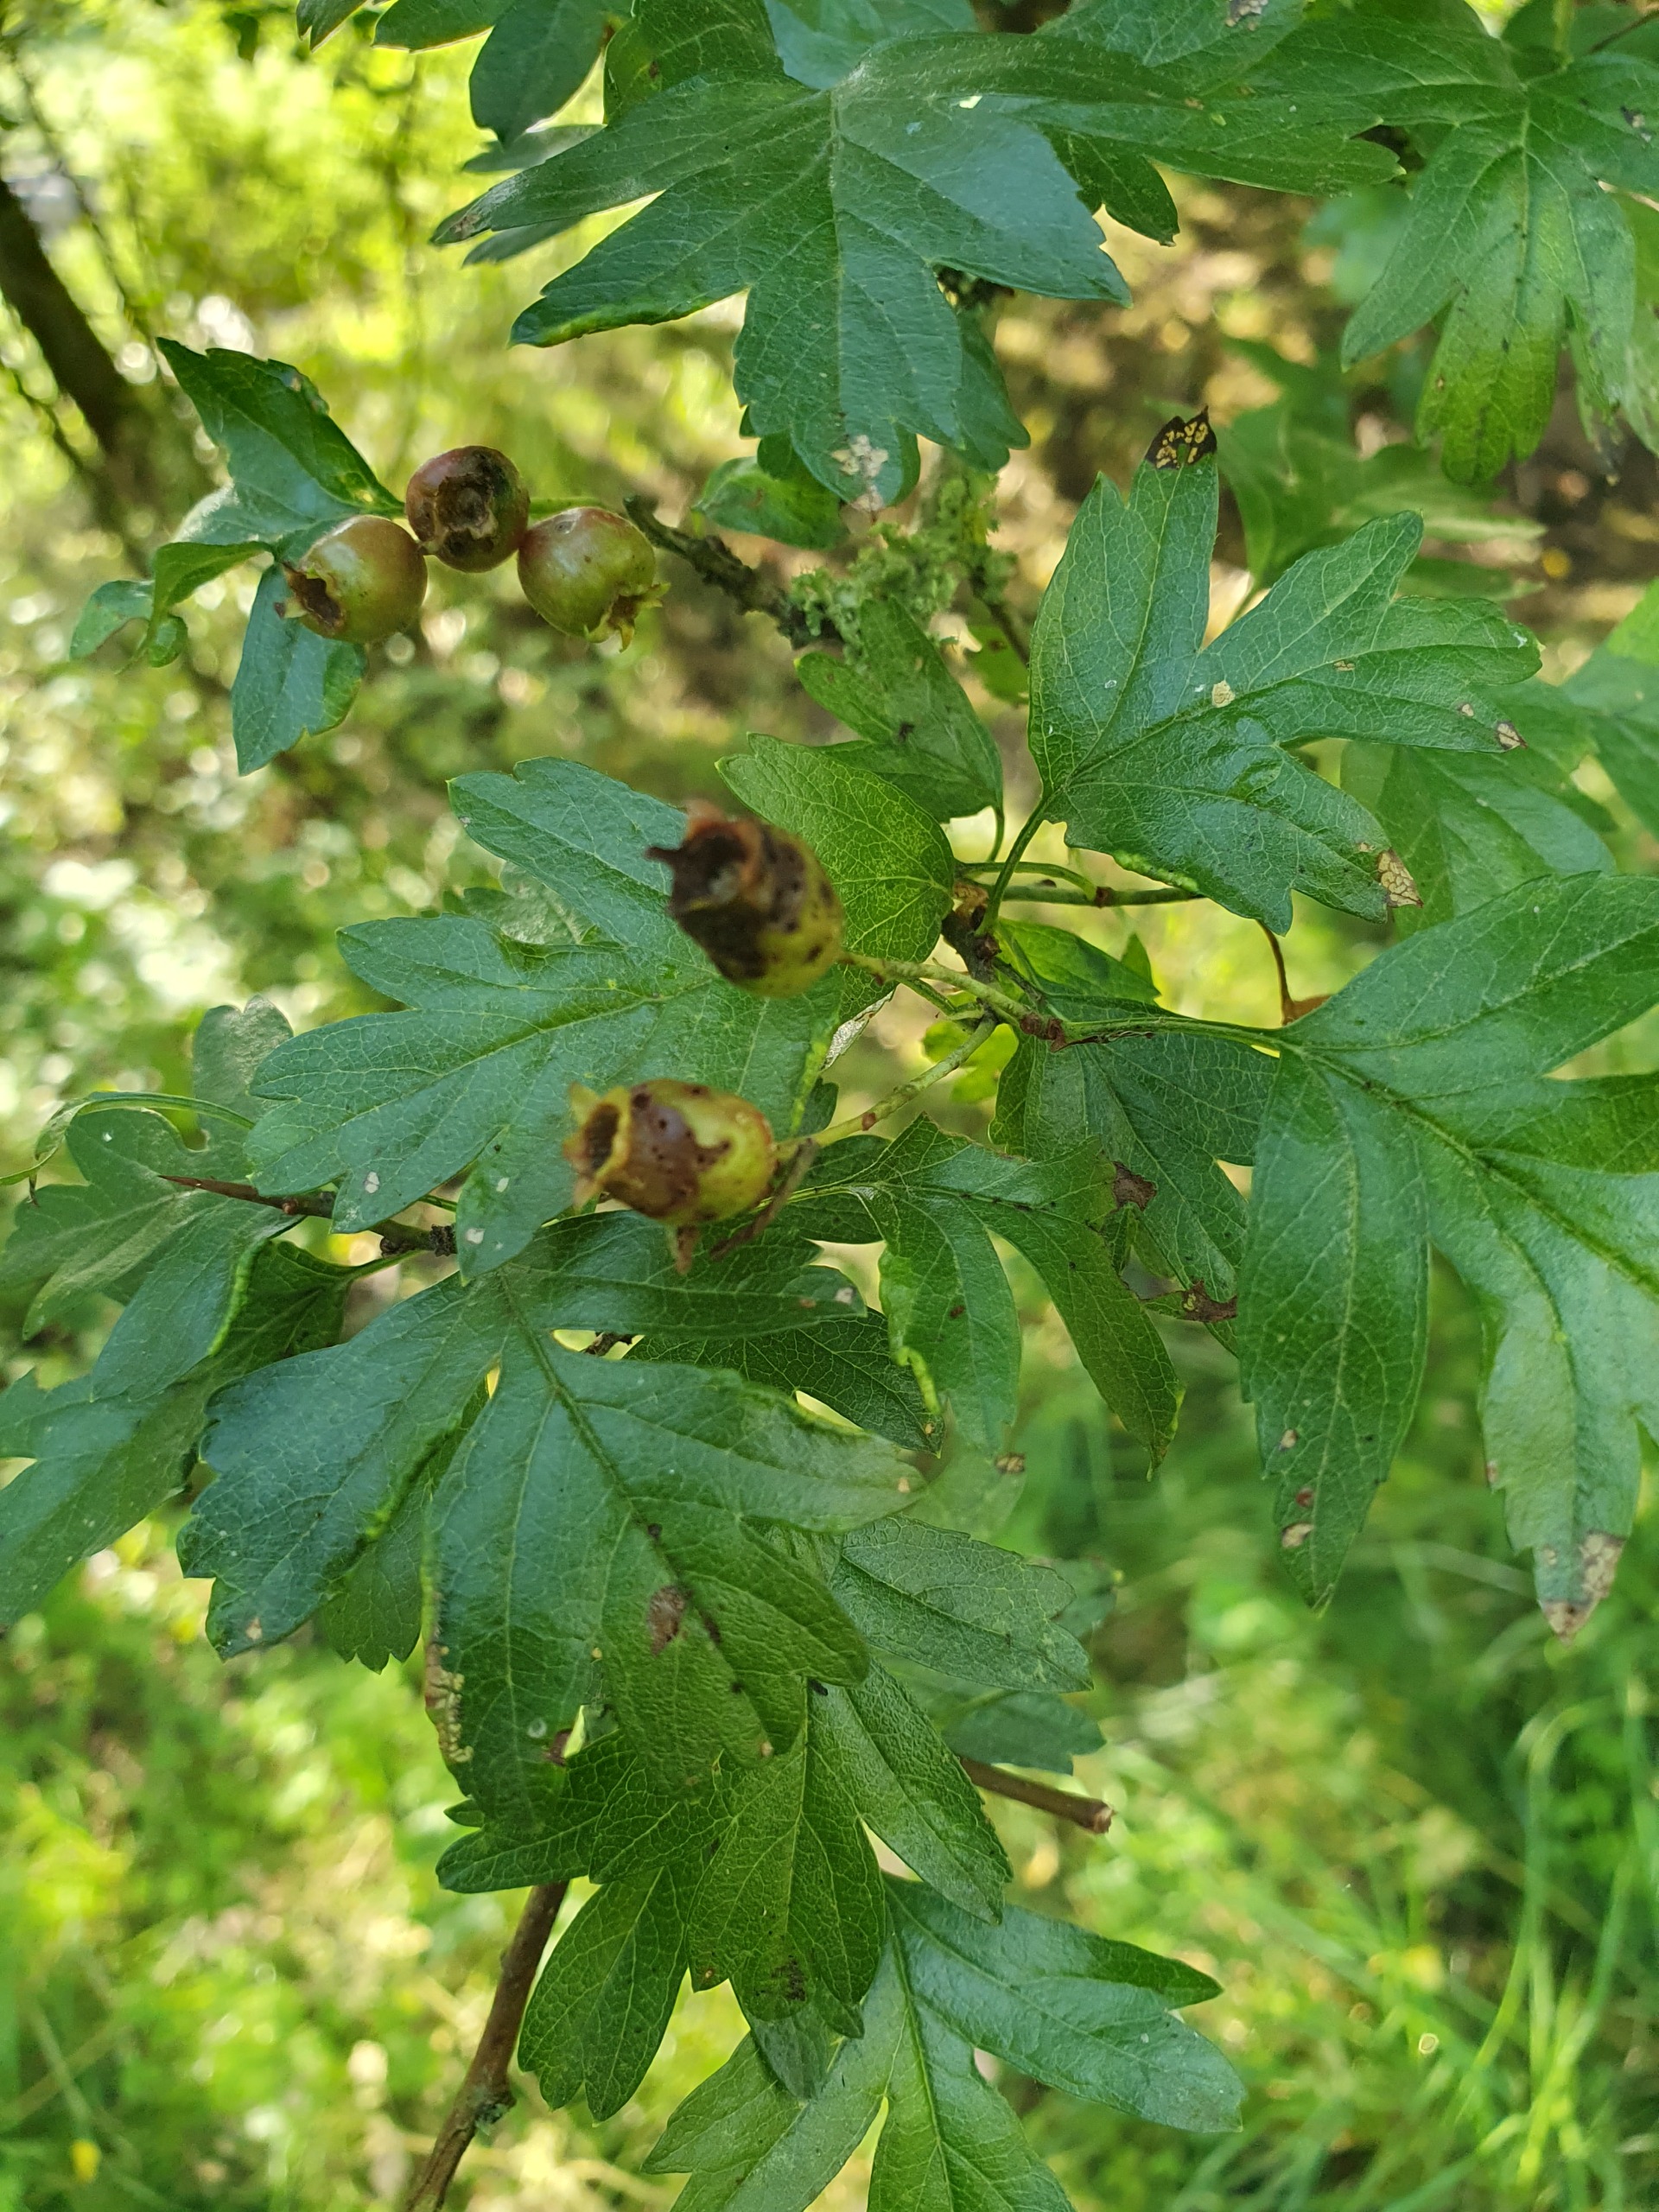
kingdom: Plantae
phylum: Tracheophyta
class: Magnoliopsida
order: Rosales
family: Rosaceae
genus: Crataegus
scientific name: Crataegus monogyna
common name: Engriflet hvidtjørn
